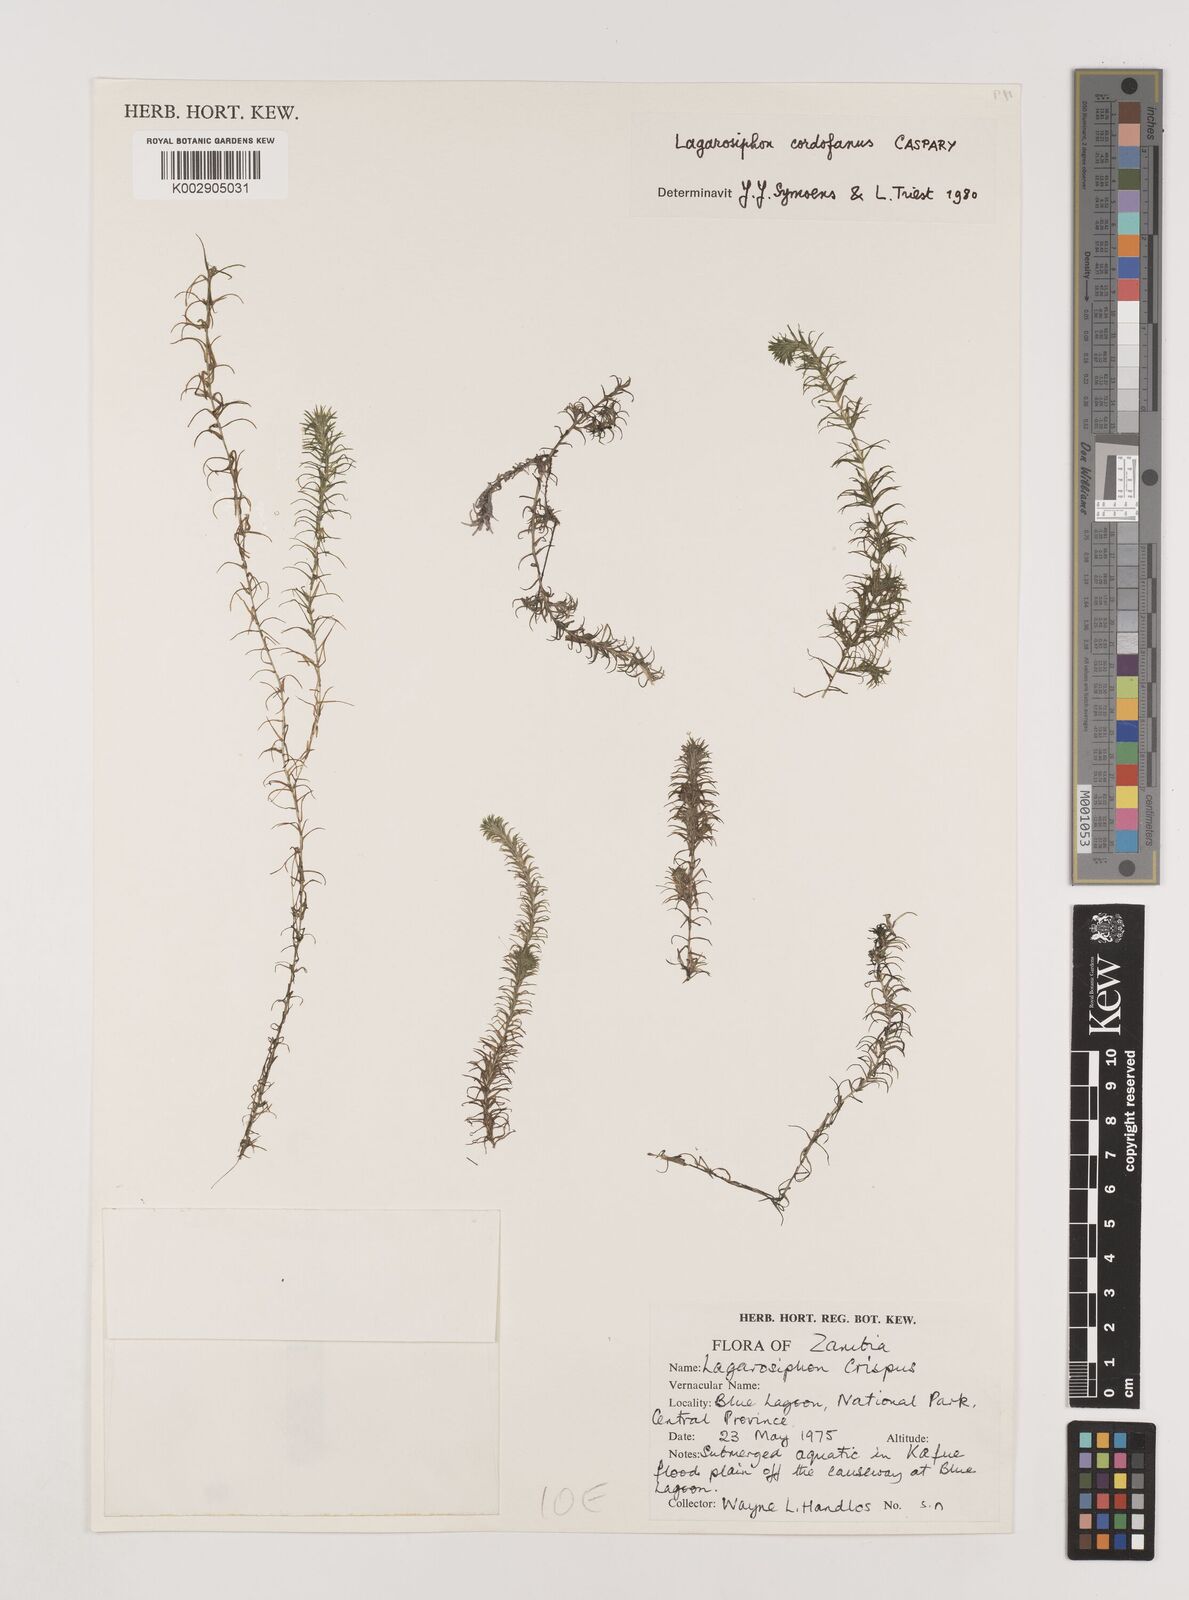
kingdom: Plantae
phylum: Tracheophyta
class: Liliopsida
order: Alismatales
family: Hydrocharitaceae
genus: Lagarosiphon
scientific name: Lagarosiphon cordofanus
